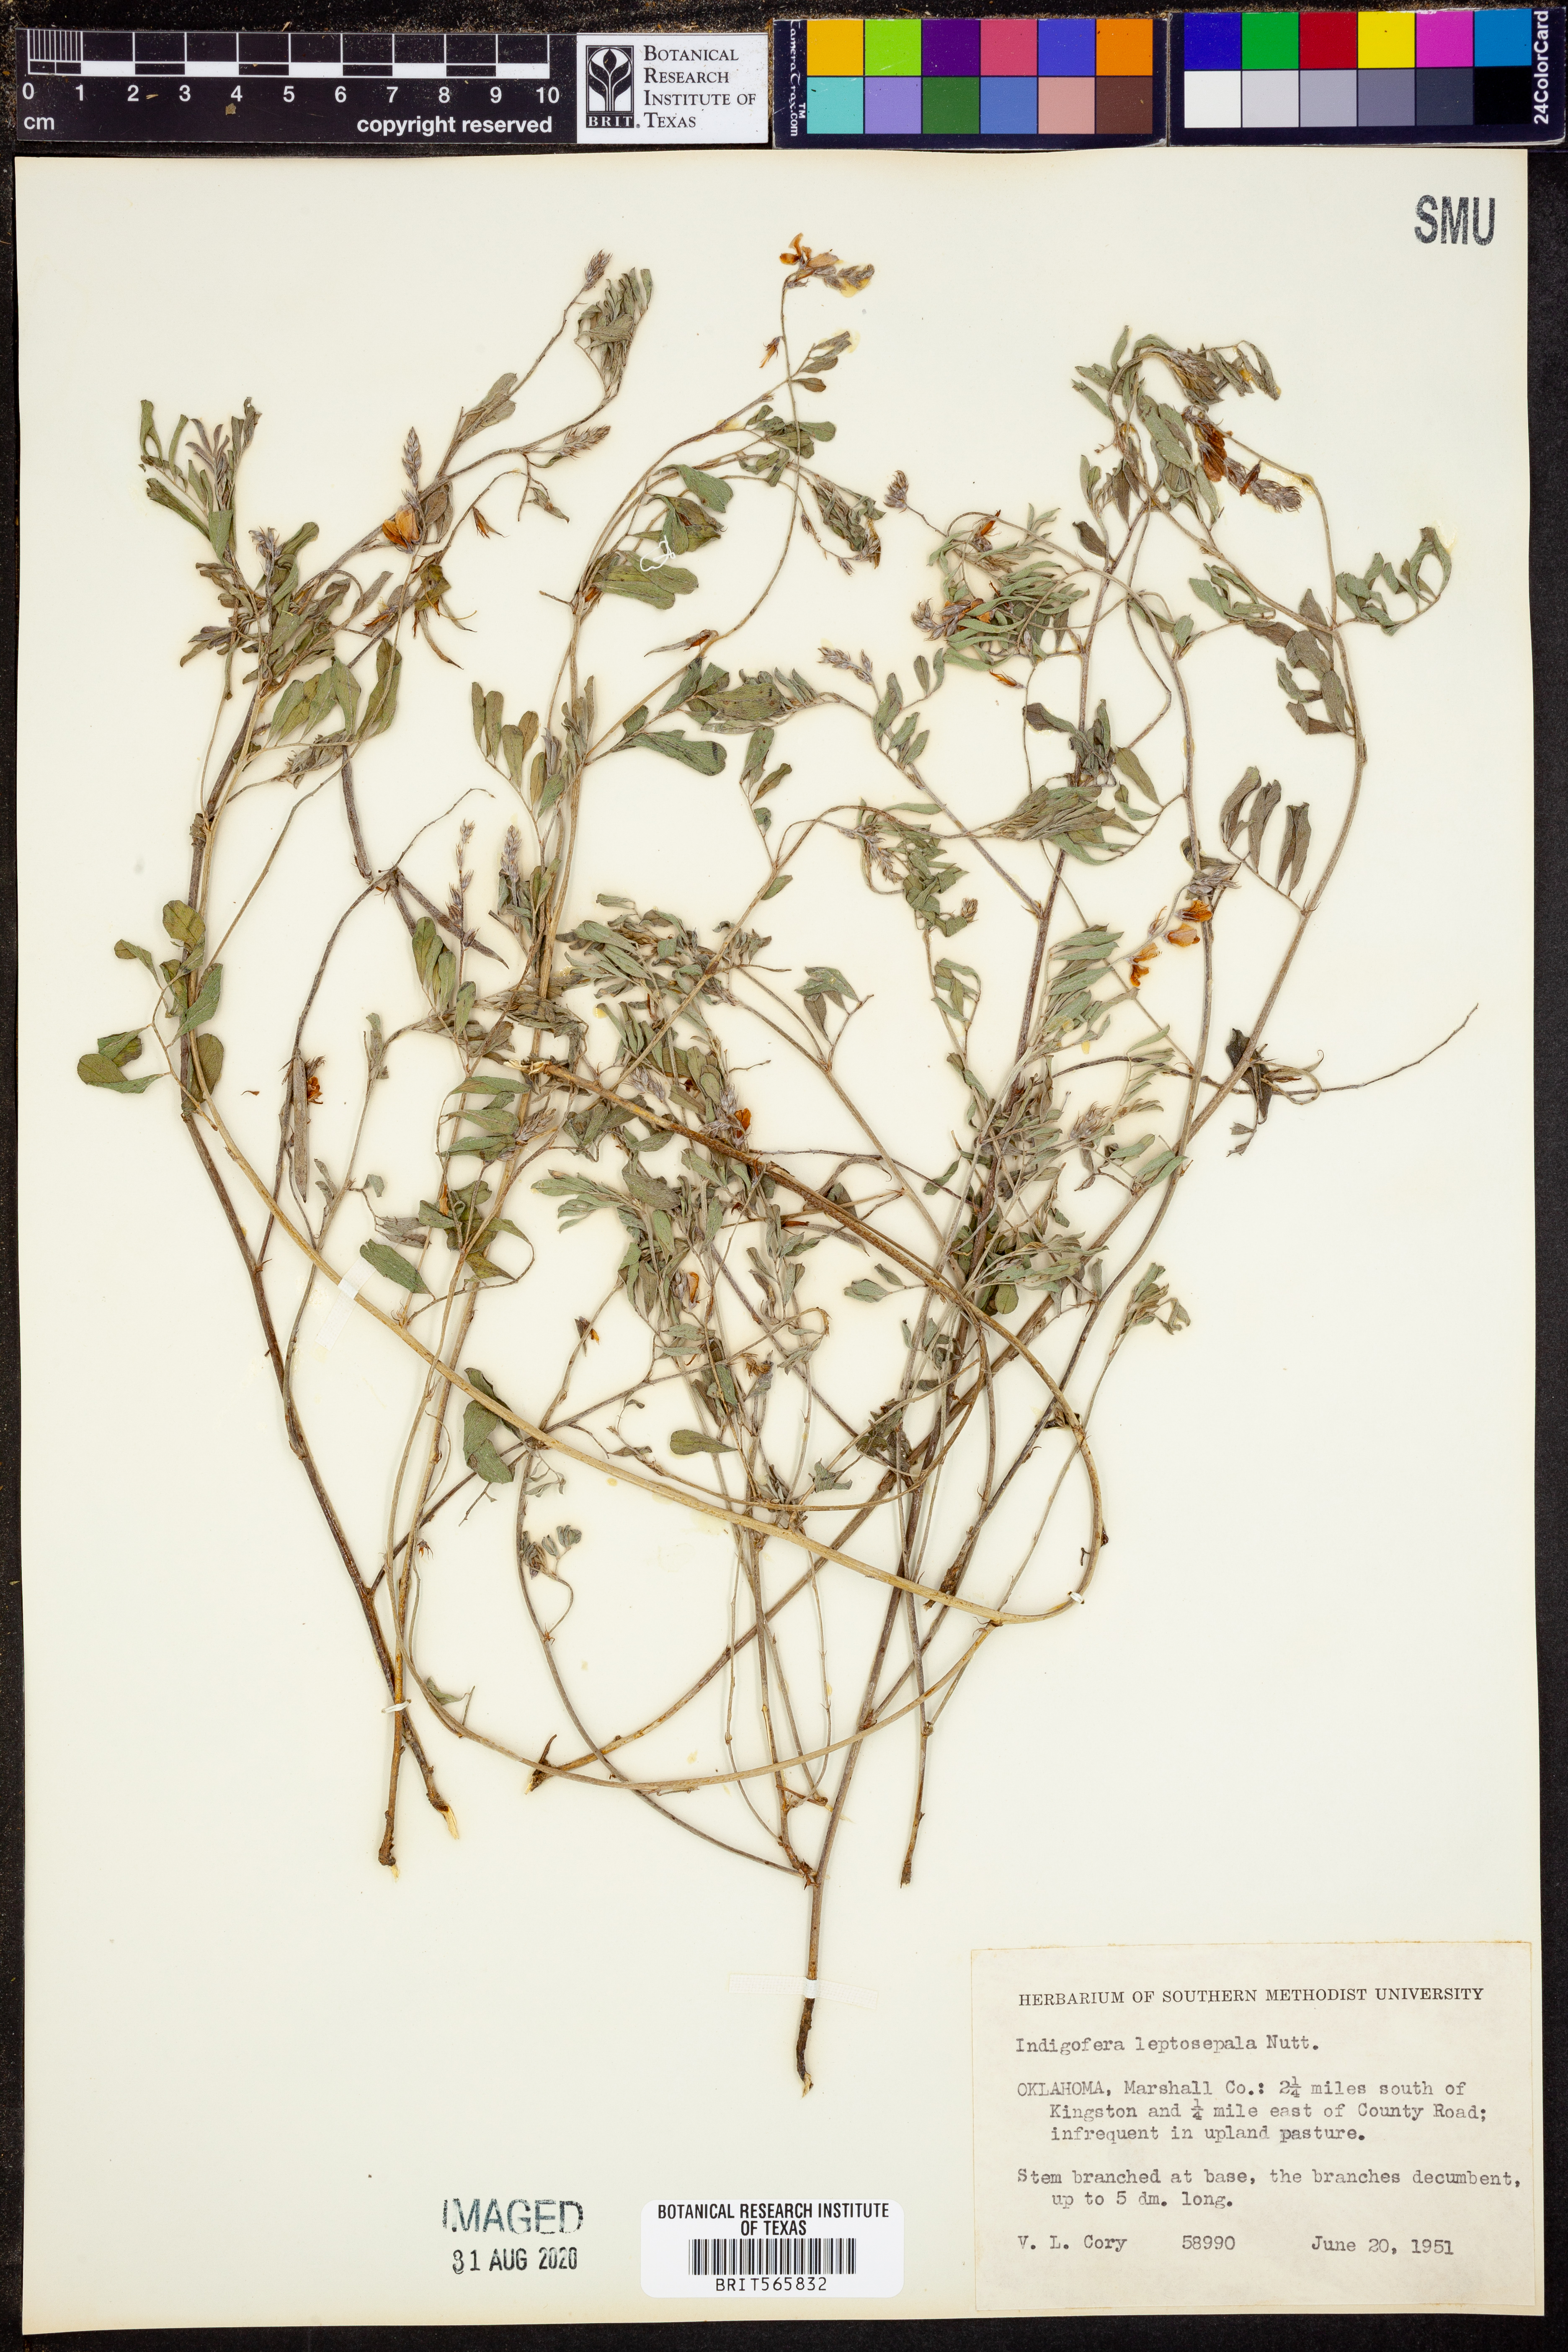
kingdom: Plantae
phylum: Tracheophyta
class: Magnoliopsida
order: Fabales
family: Fabaceae
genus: Indigofera
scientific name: Indigofera argutidens
